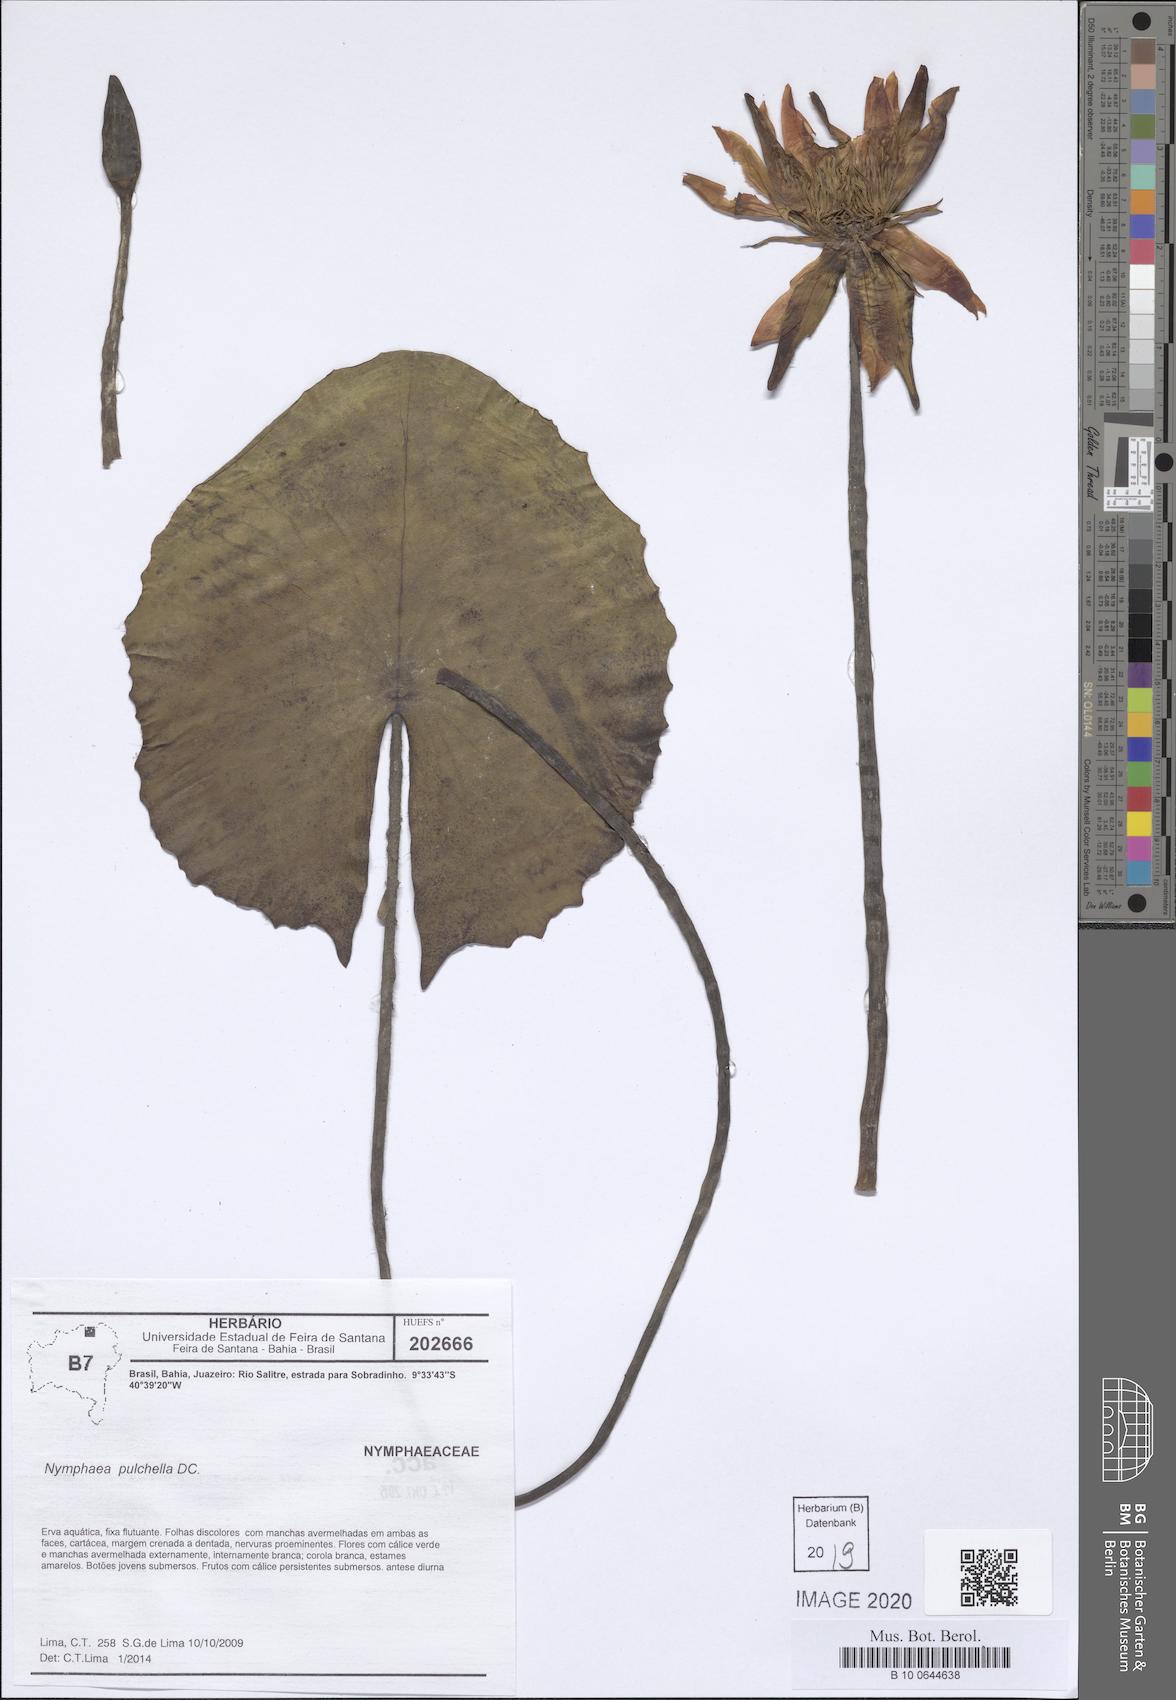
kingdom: Plantae
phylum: Tracheophyta
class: Magnoliopsida
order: Nymphaeales
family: Nymphaeaceae
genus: Nymphaea
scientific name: Nymphaea pulchella
